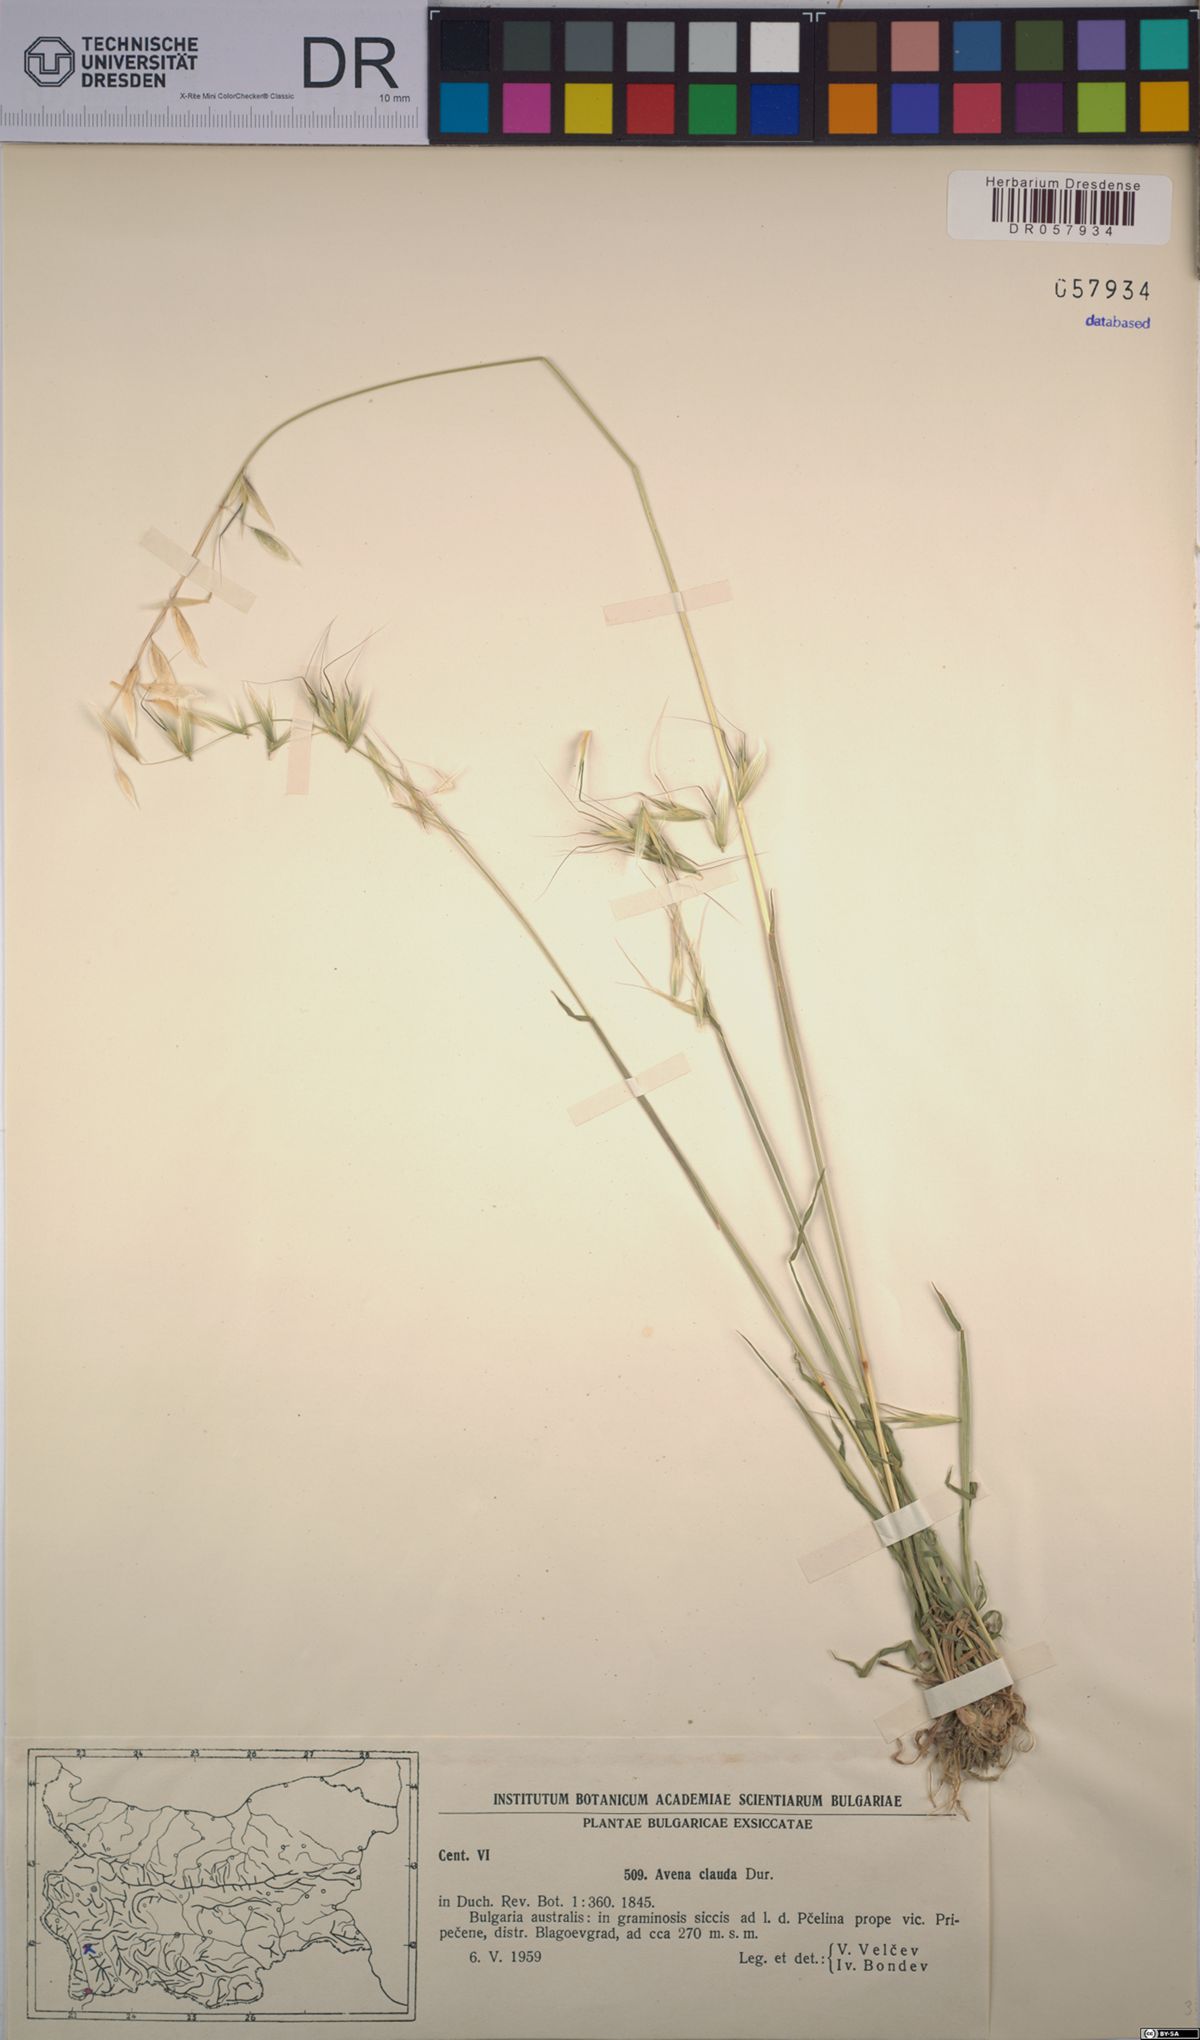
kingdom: Plantae
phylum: Tracheophyta
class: Liliopsida
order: Poales
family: Poaceae
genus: Avena
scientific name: Avena clauda
